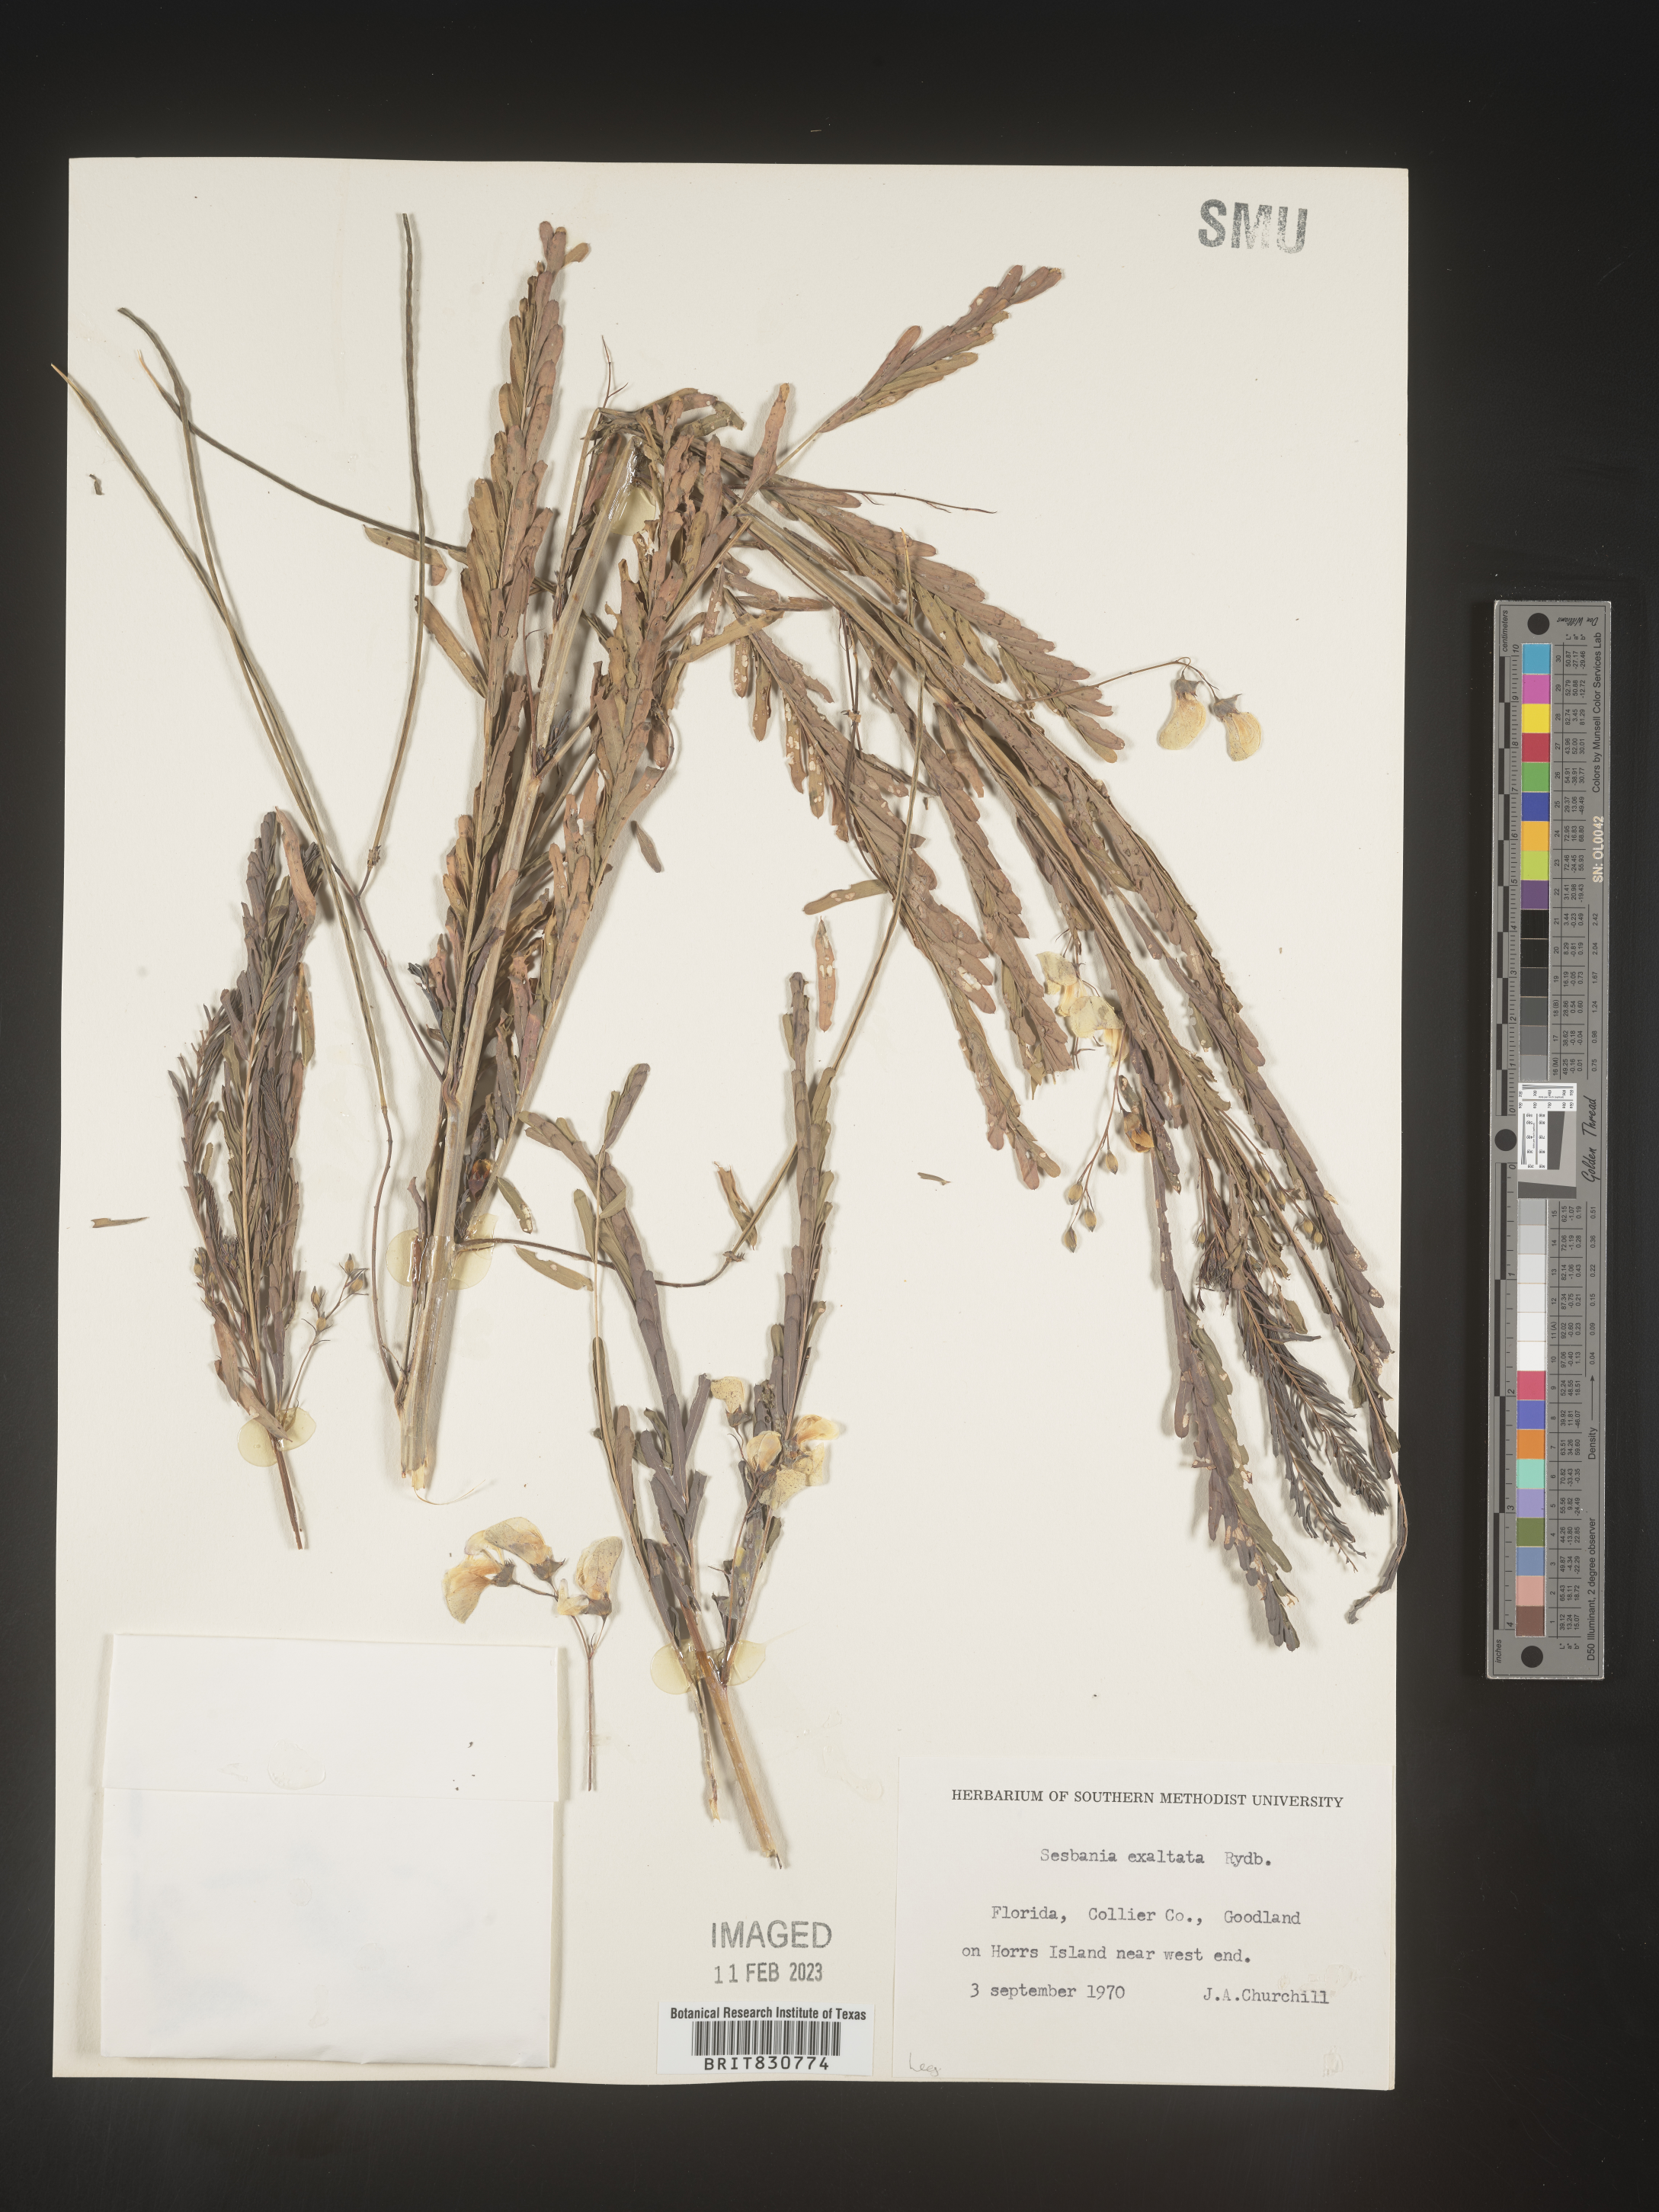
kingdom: Plantae
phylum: Tracheophyta
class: Magnoliopsida
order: Fabales
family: Fabaceae
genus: Sesbania
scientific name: Sesbania vesicaria
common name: Bagpod
